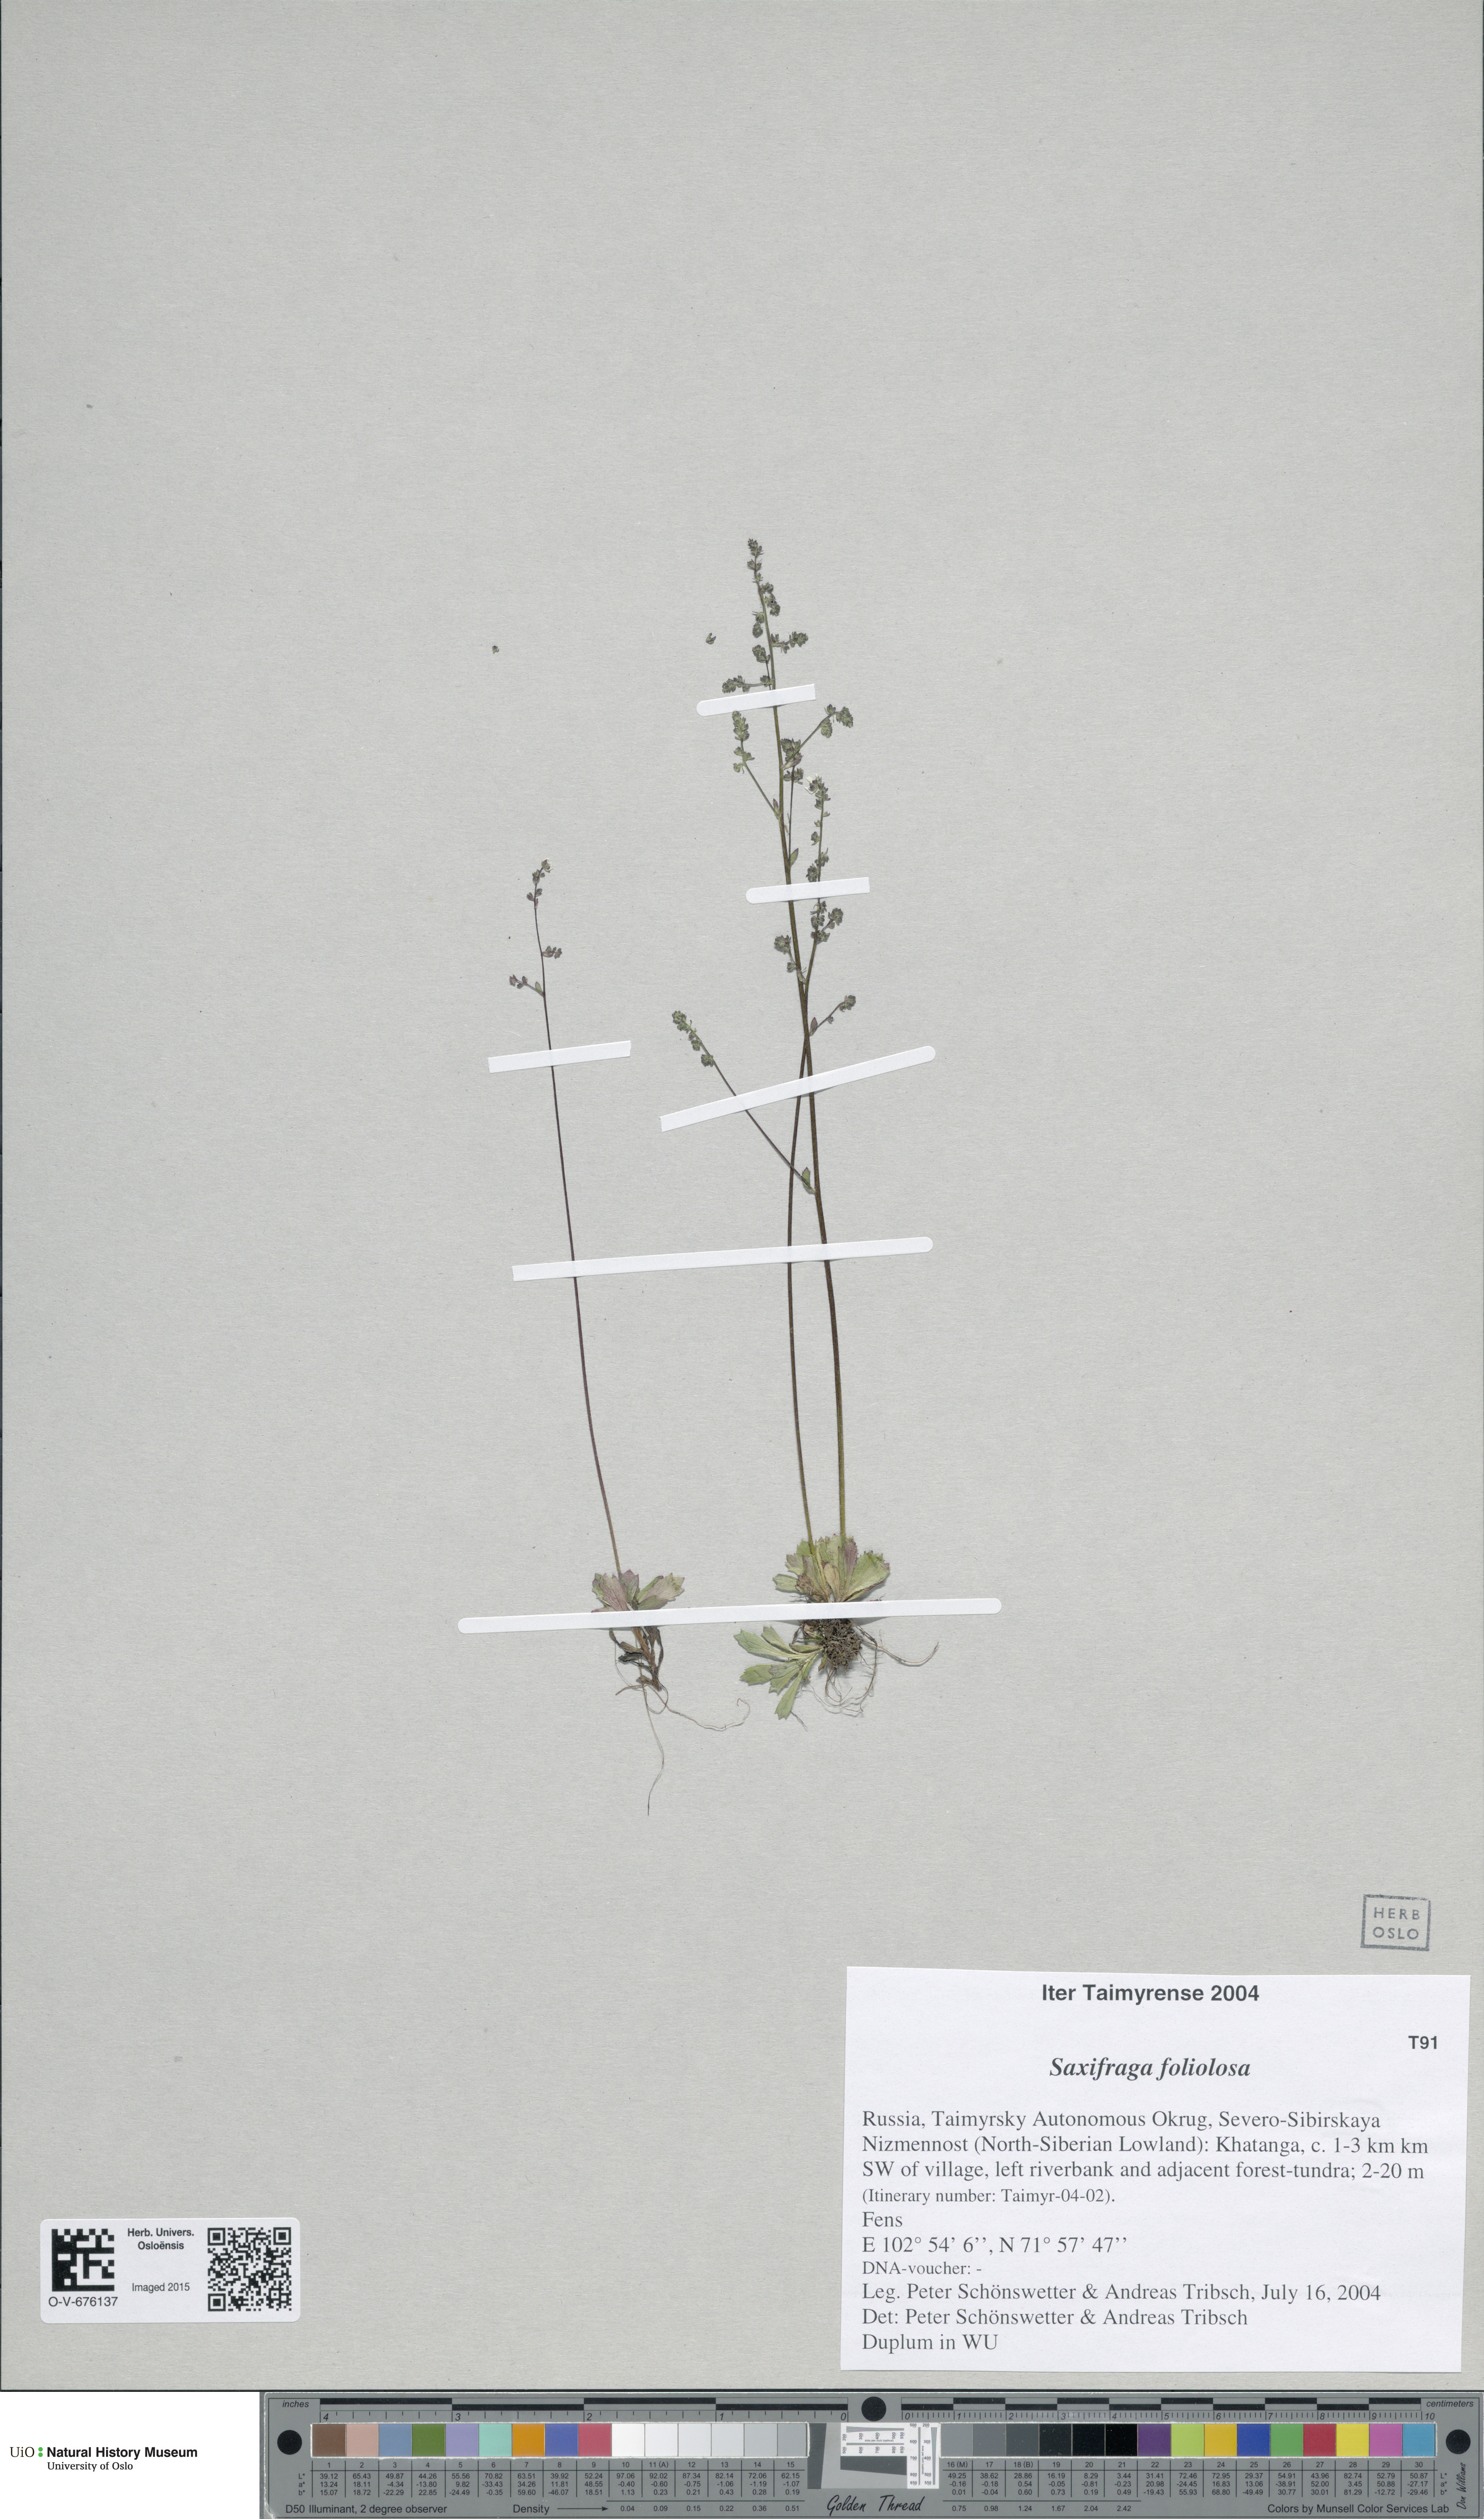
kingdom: Plantae
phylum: Tracheophyta
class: Magnoliopsida
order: Saxifragales
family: Saxifragaceae
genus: Micranthes
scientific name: Micranthes foliolosa
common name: Leafystem saxifrage
